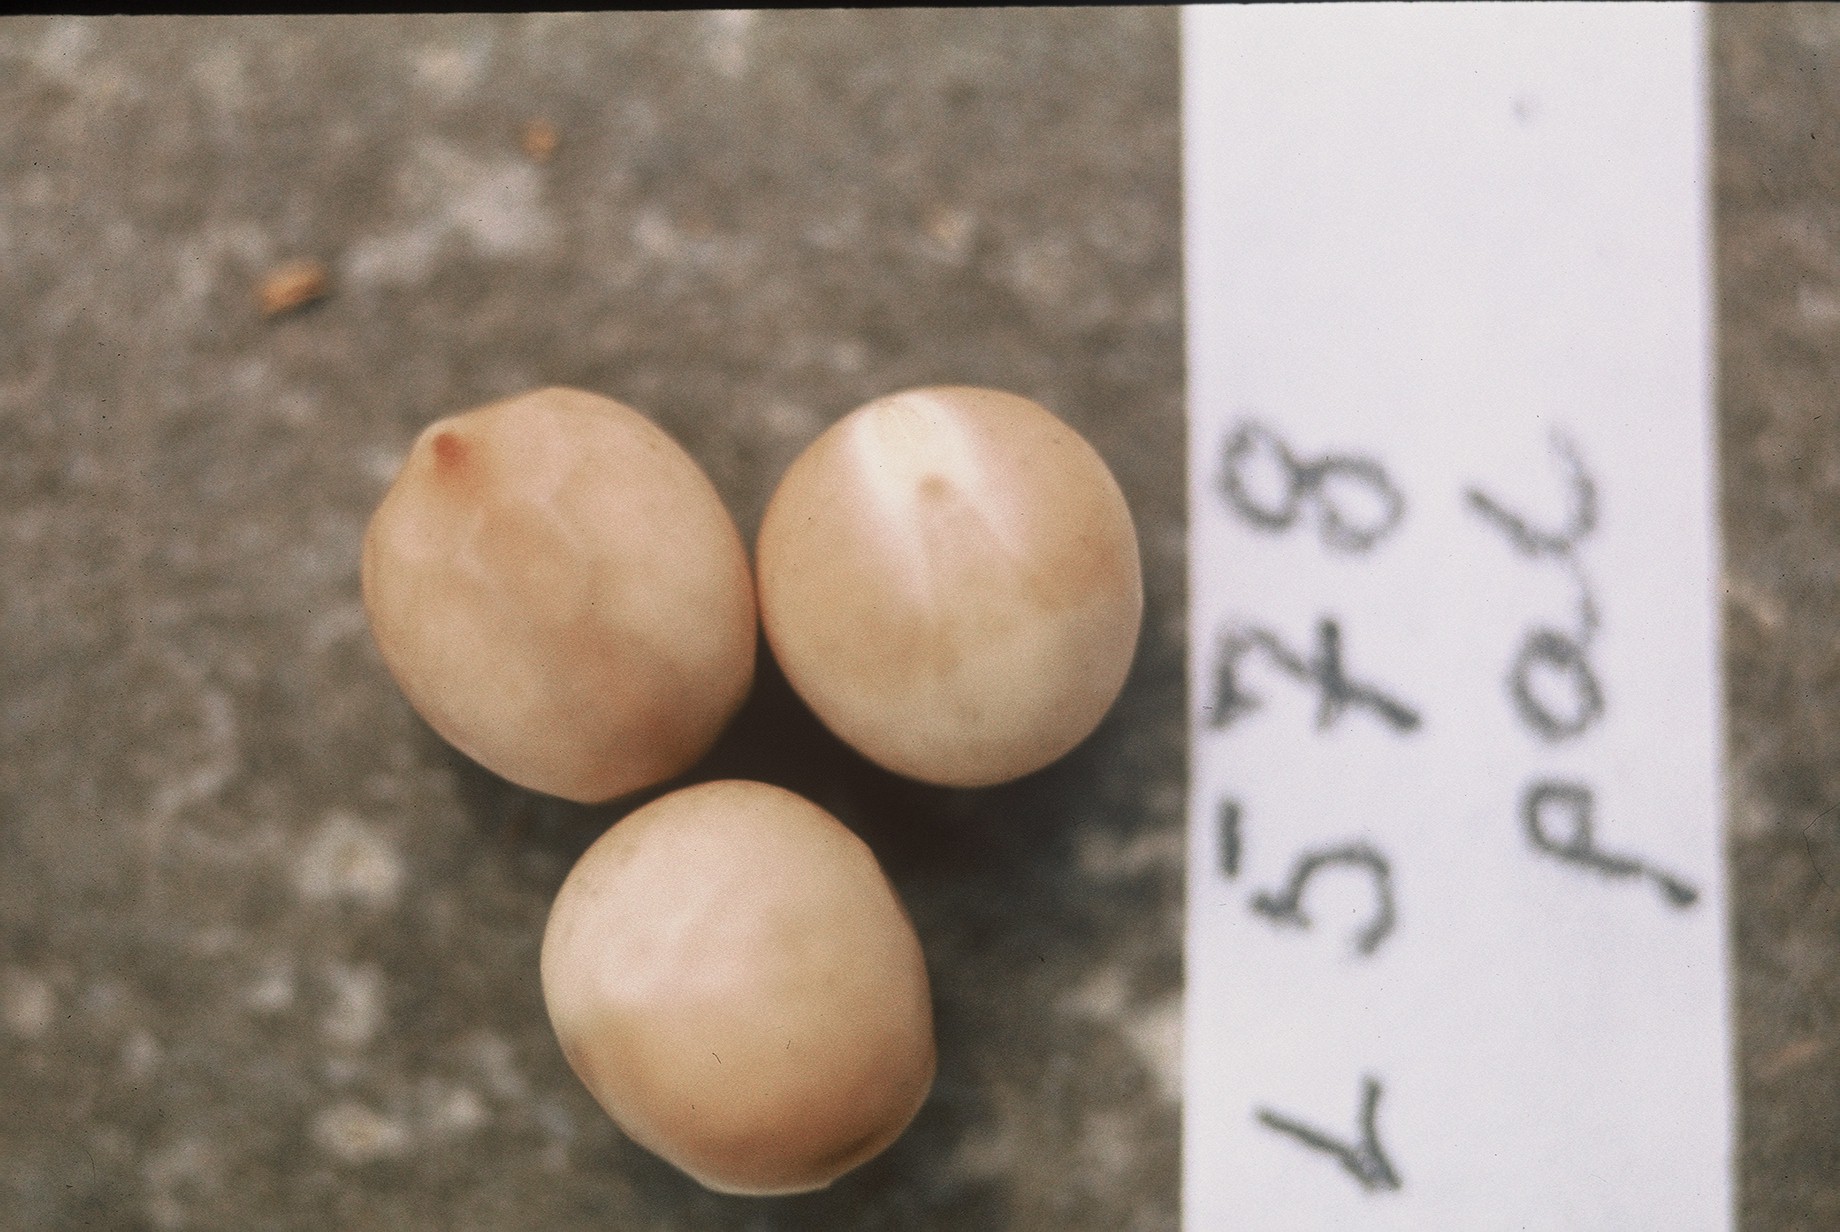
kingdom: Plantae
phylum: Tracheophyta
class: Magnoliopsida
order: Fabales
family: Fabaceae
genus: Lathyrus
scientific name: Lathyrus oleraceus
